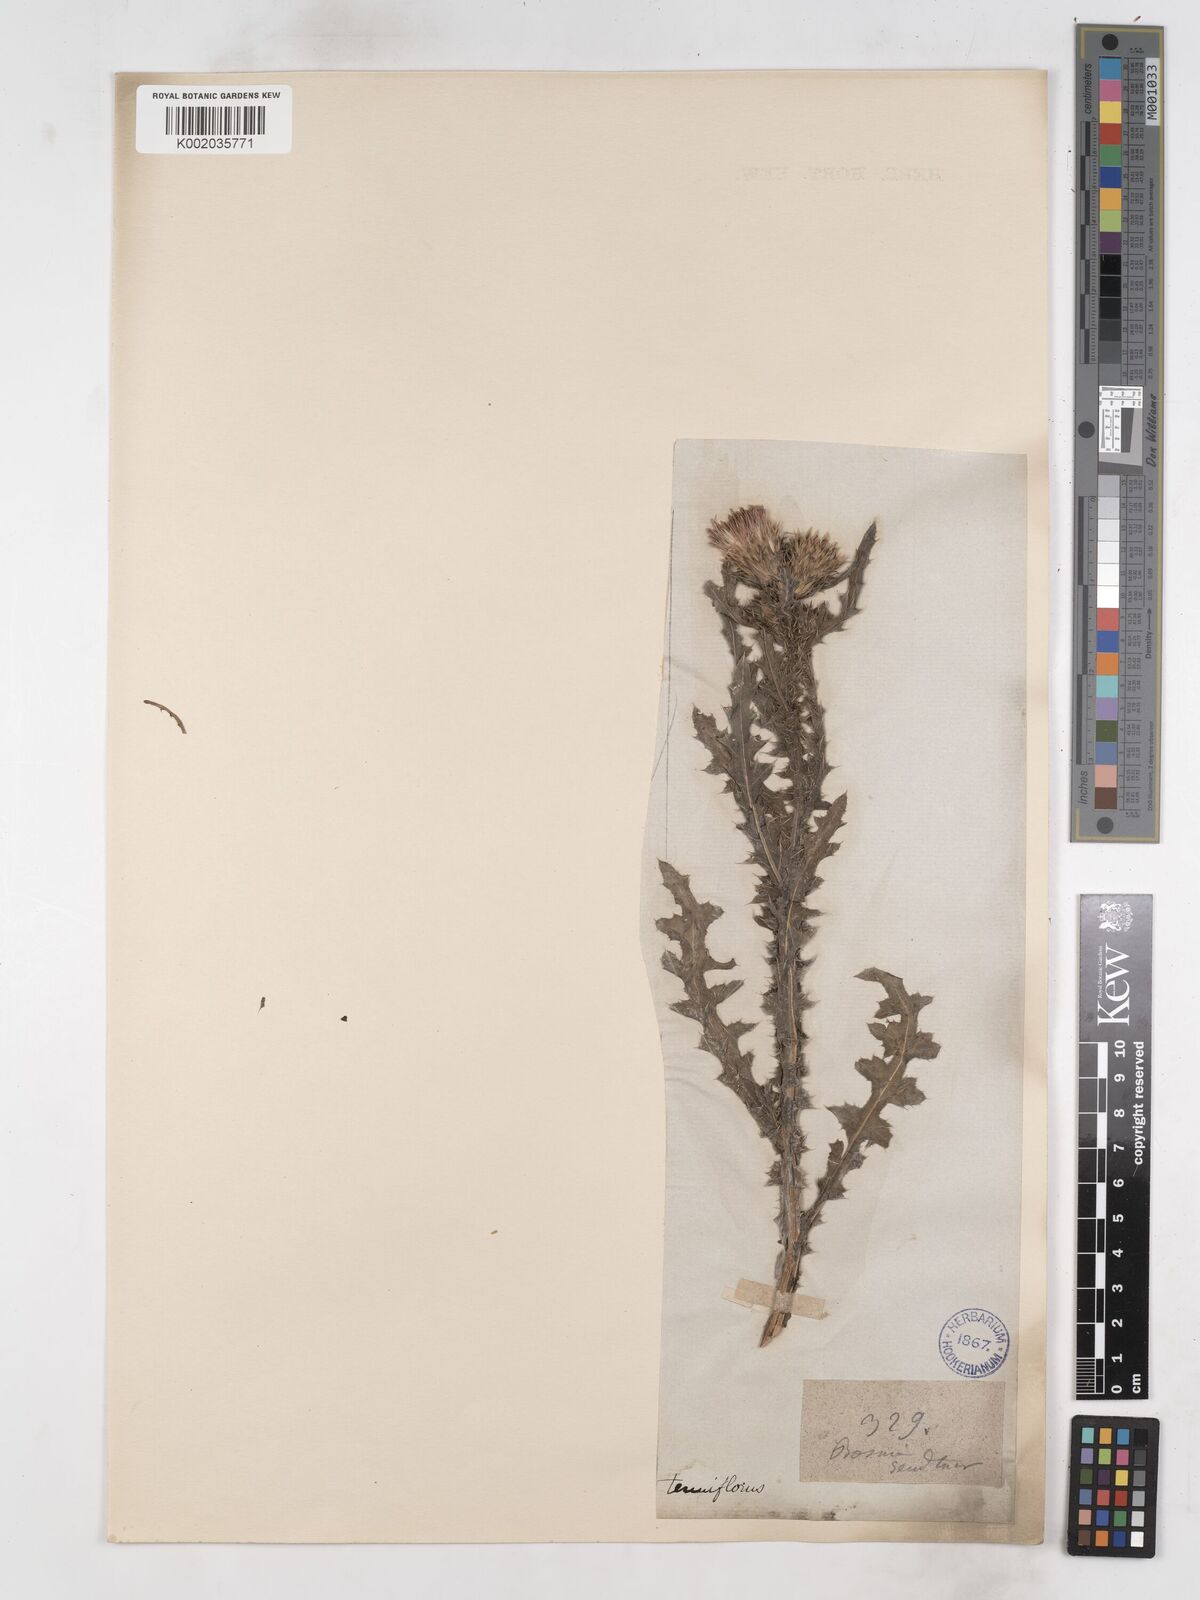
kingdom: Plantae
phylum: Tracheophyta
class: Magnoliopsida
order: Asterales
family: Asteraceae
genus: Carduus
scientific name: Carduus acanthoides
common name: Plumeless thistle
